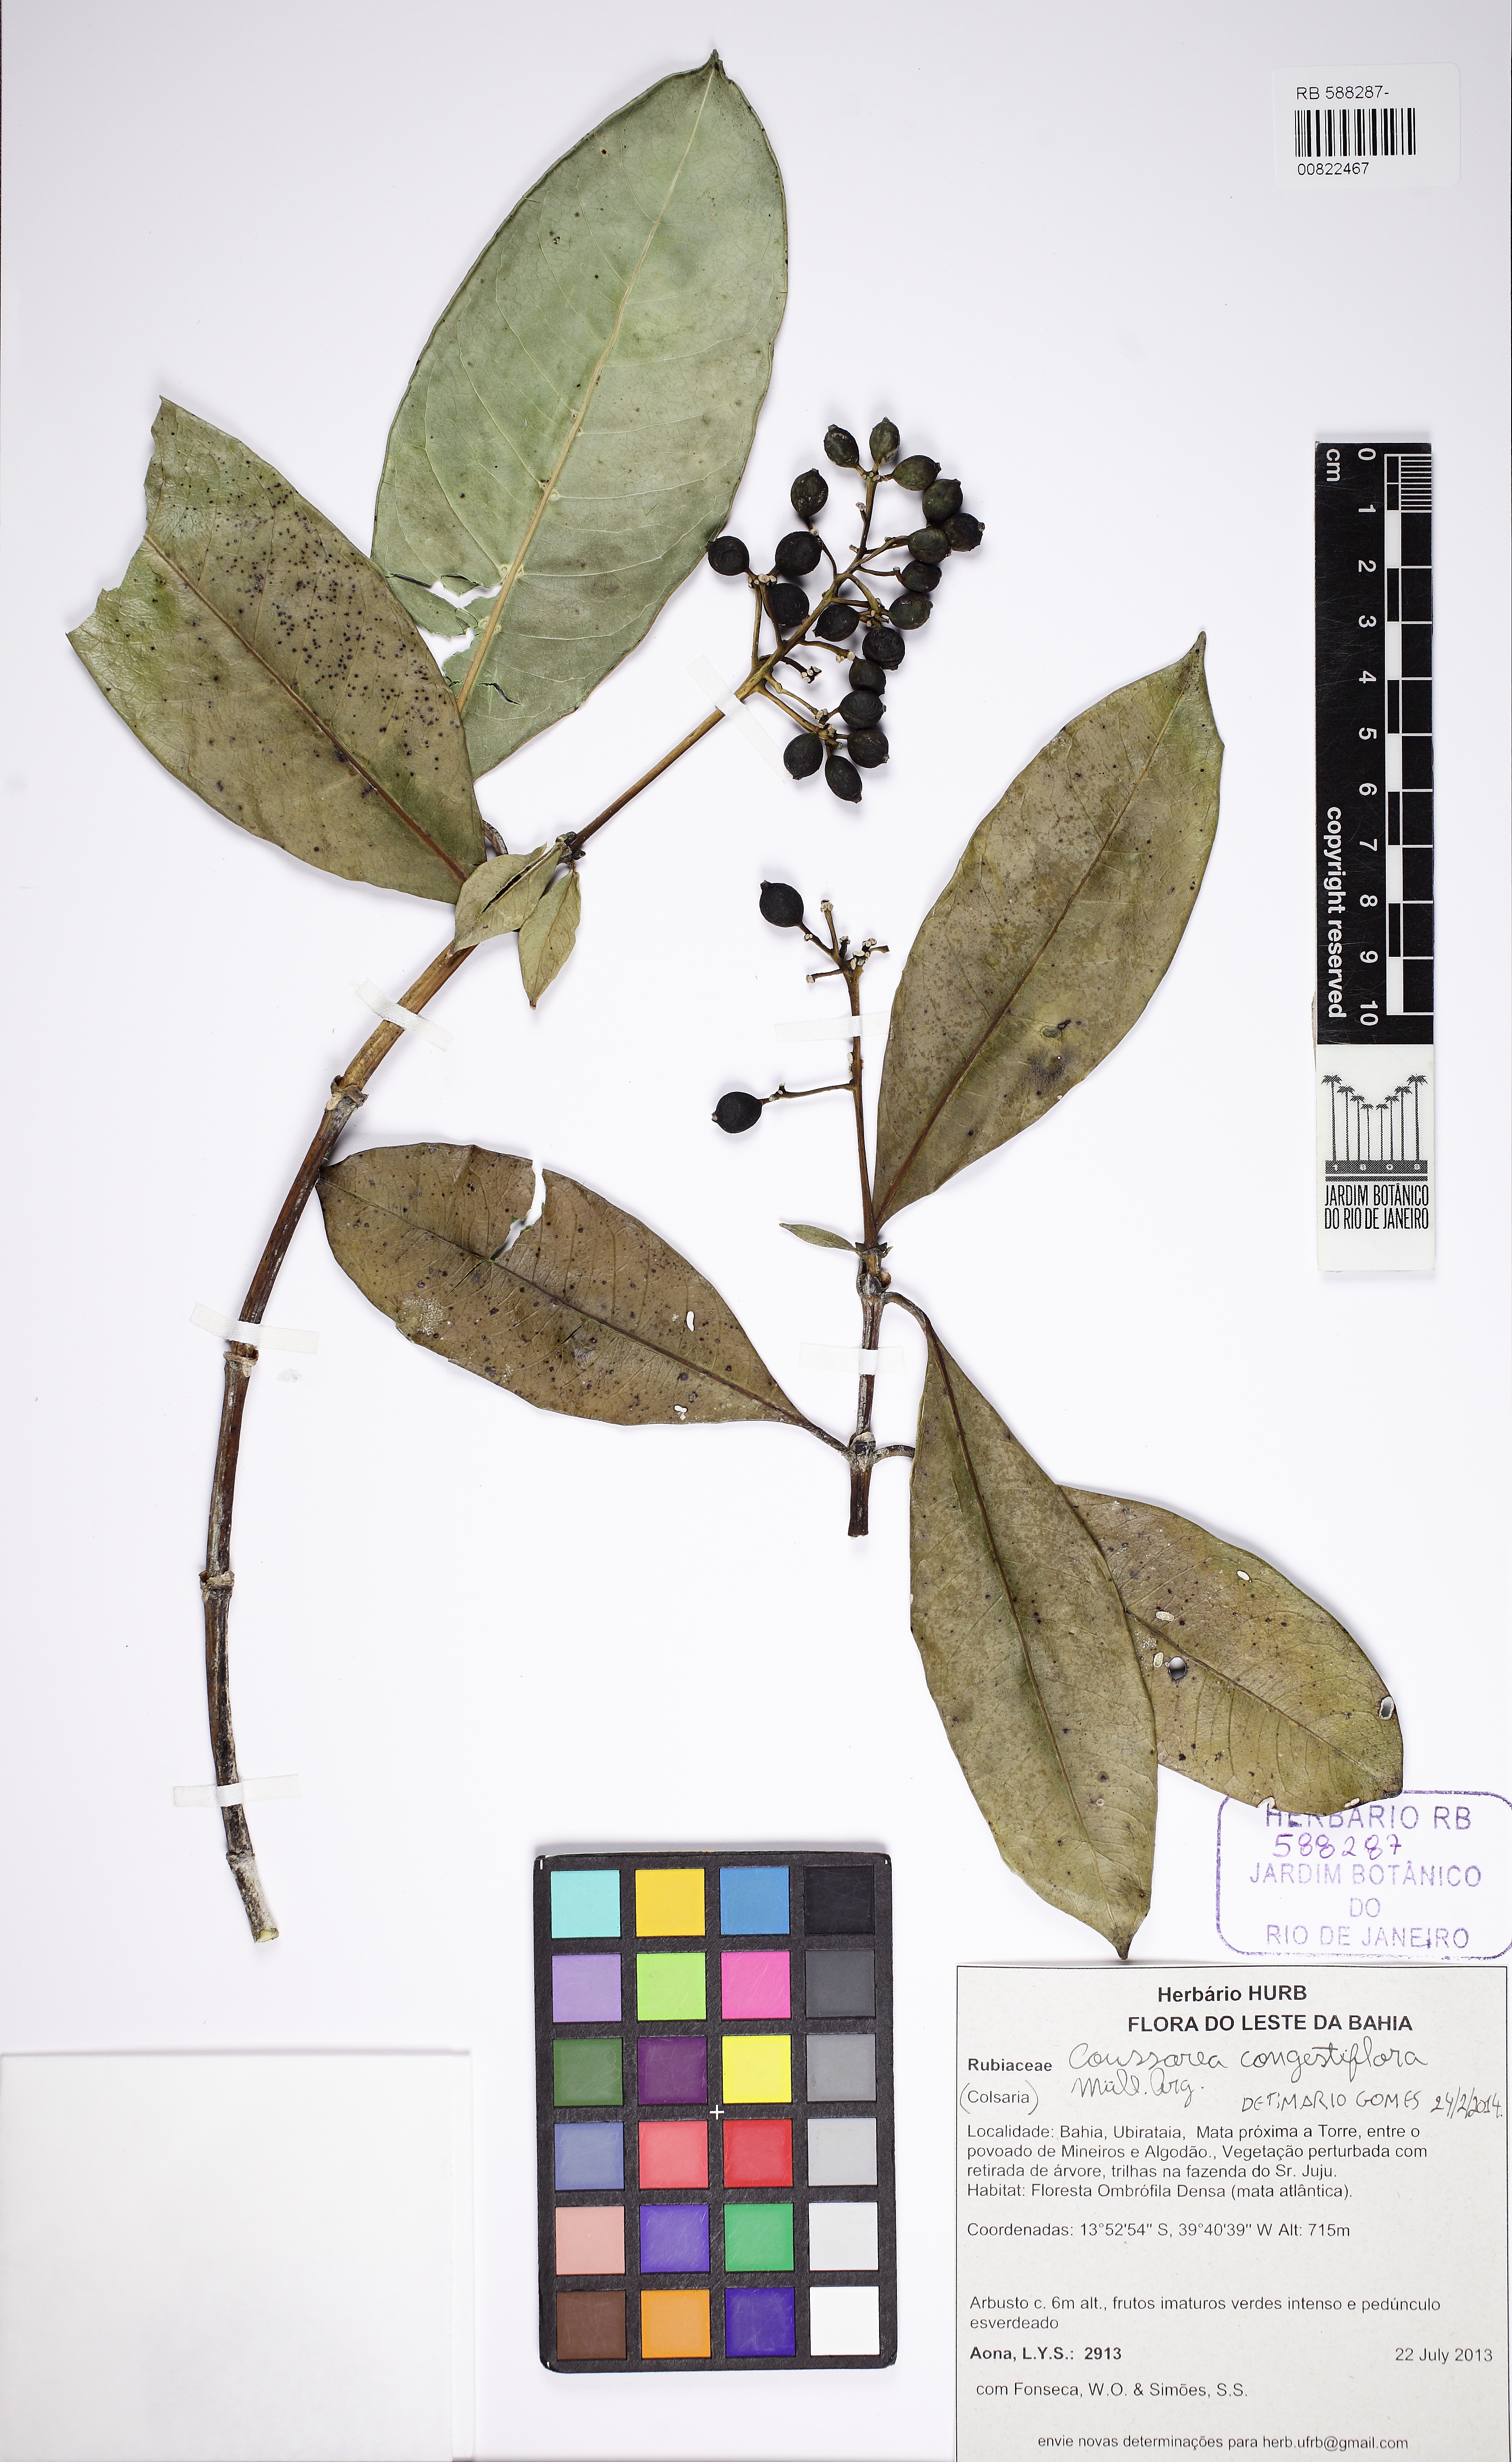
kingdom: Plantae
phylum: Tracheophyta
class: Magnoliopsida
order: Gentianales
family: Rubiaceae
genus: Coussarea
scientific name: Coussarea congestiflora
